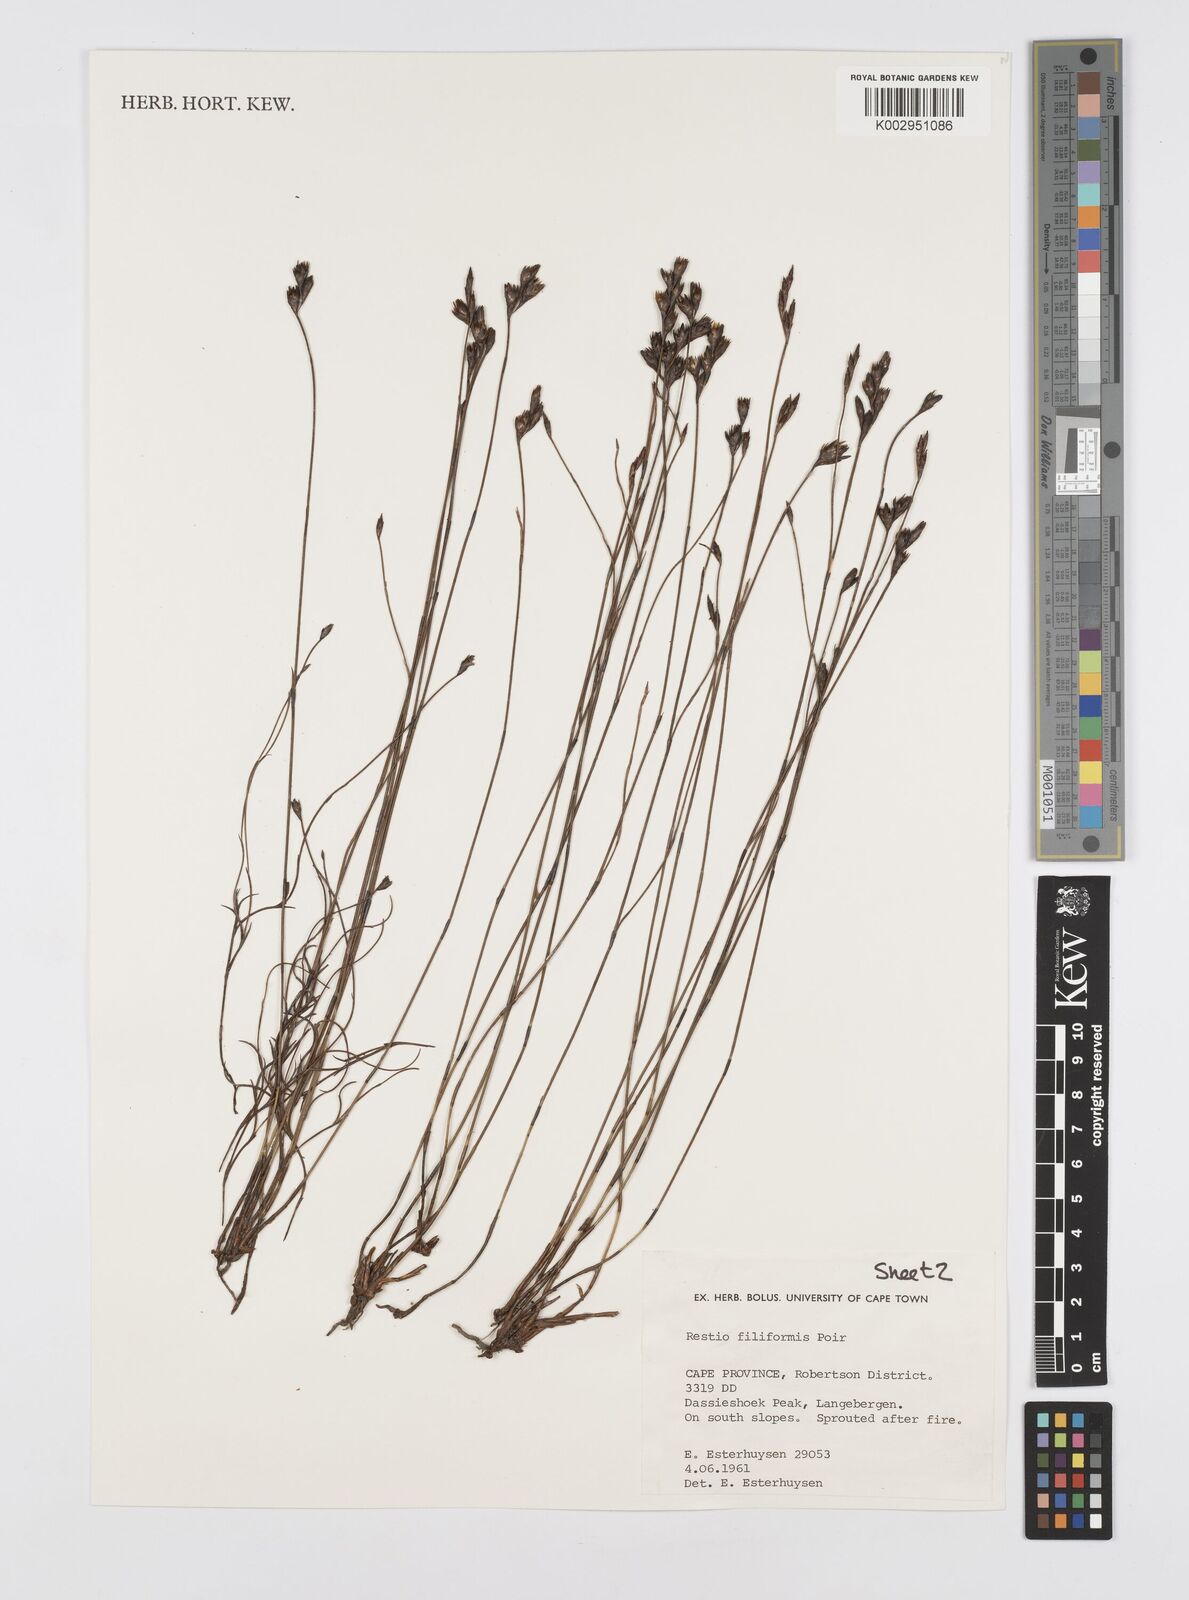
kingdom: Plantae
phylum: Tracheophyta
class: Liliopsida
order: Poales
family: Restionaceae
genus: Restio
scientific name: Restio filiformis
